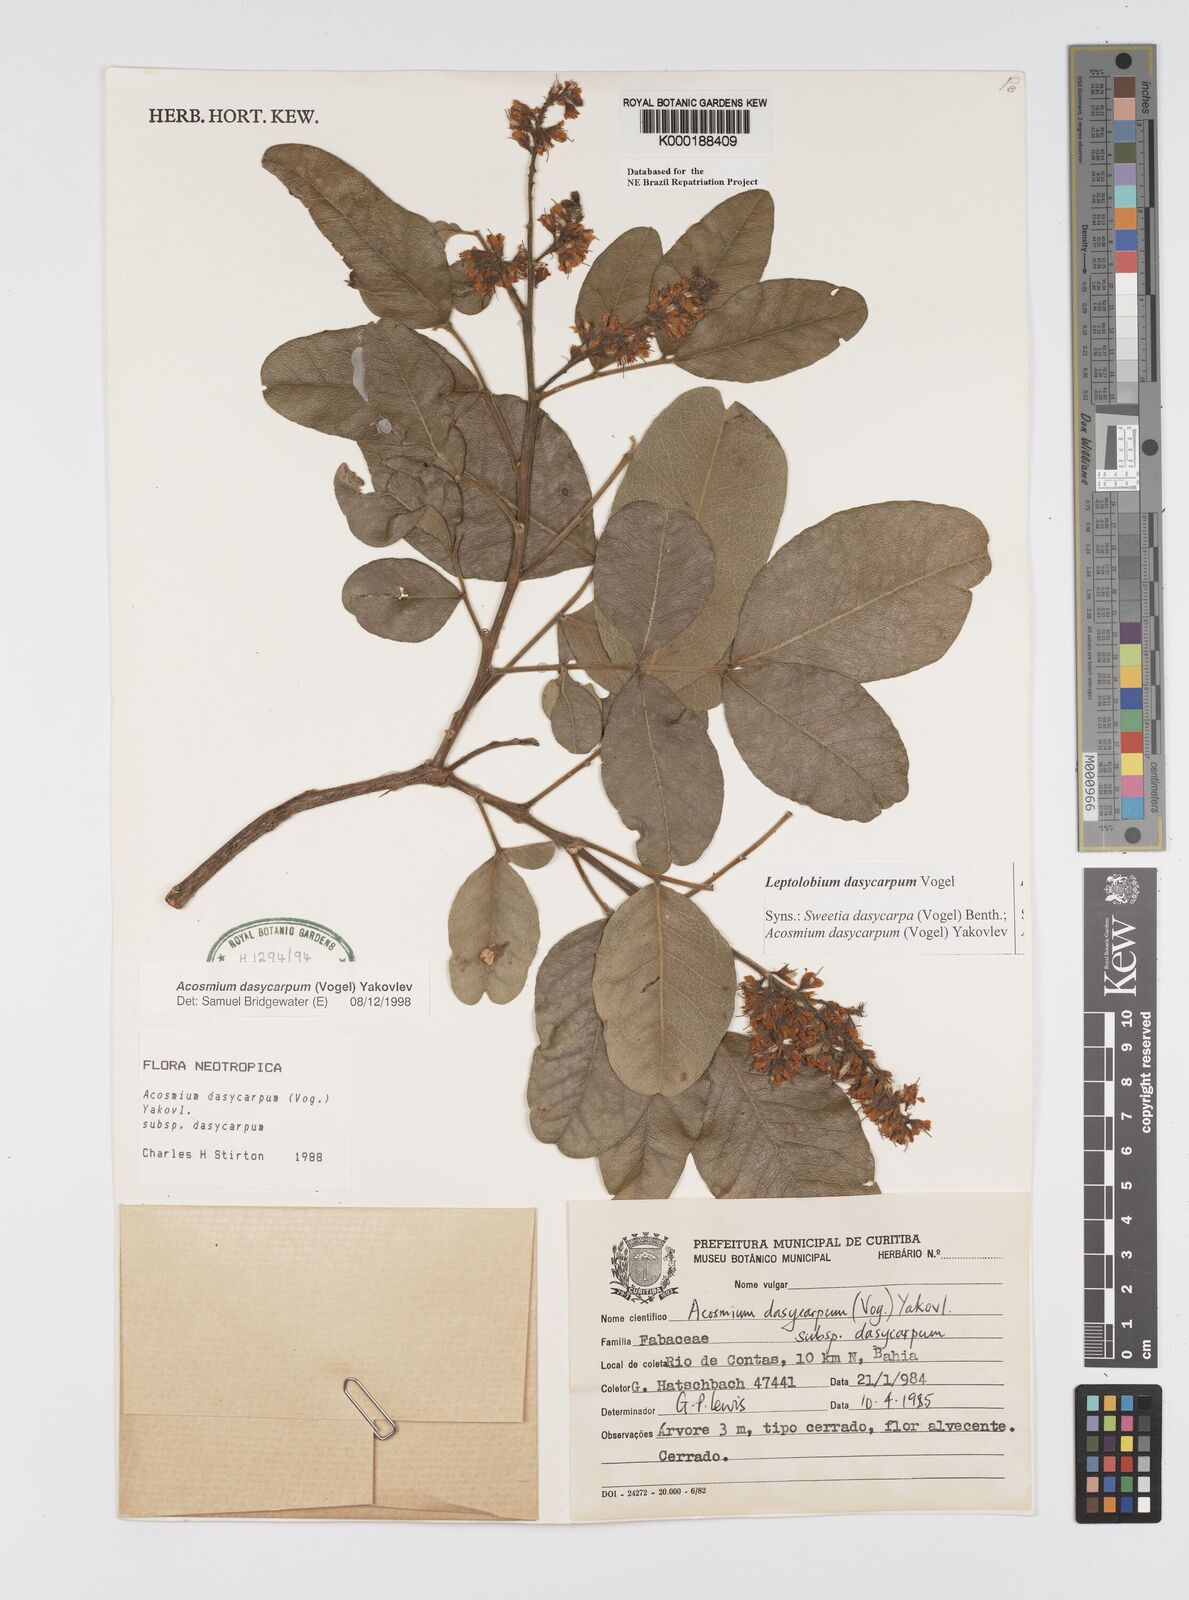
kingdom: Plantae
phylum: Tracheophyta
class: Magnoliopsida
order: Fabales
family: Fabaceae
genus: Leptolobium
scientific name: Leptolobium dasycarpum
